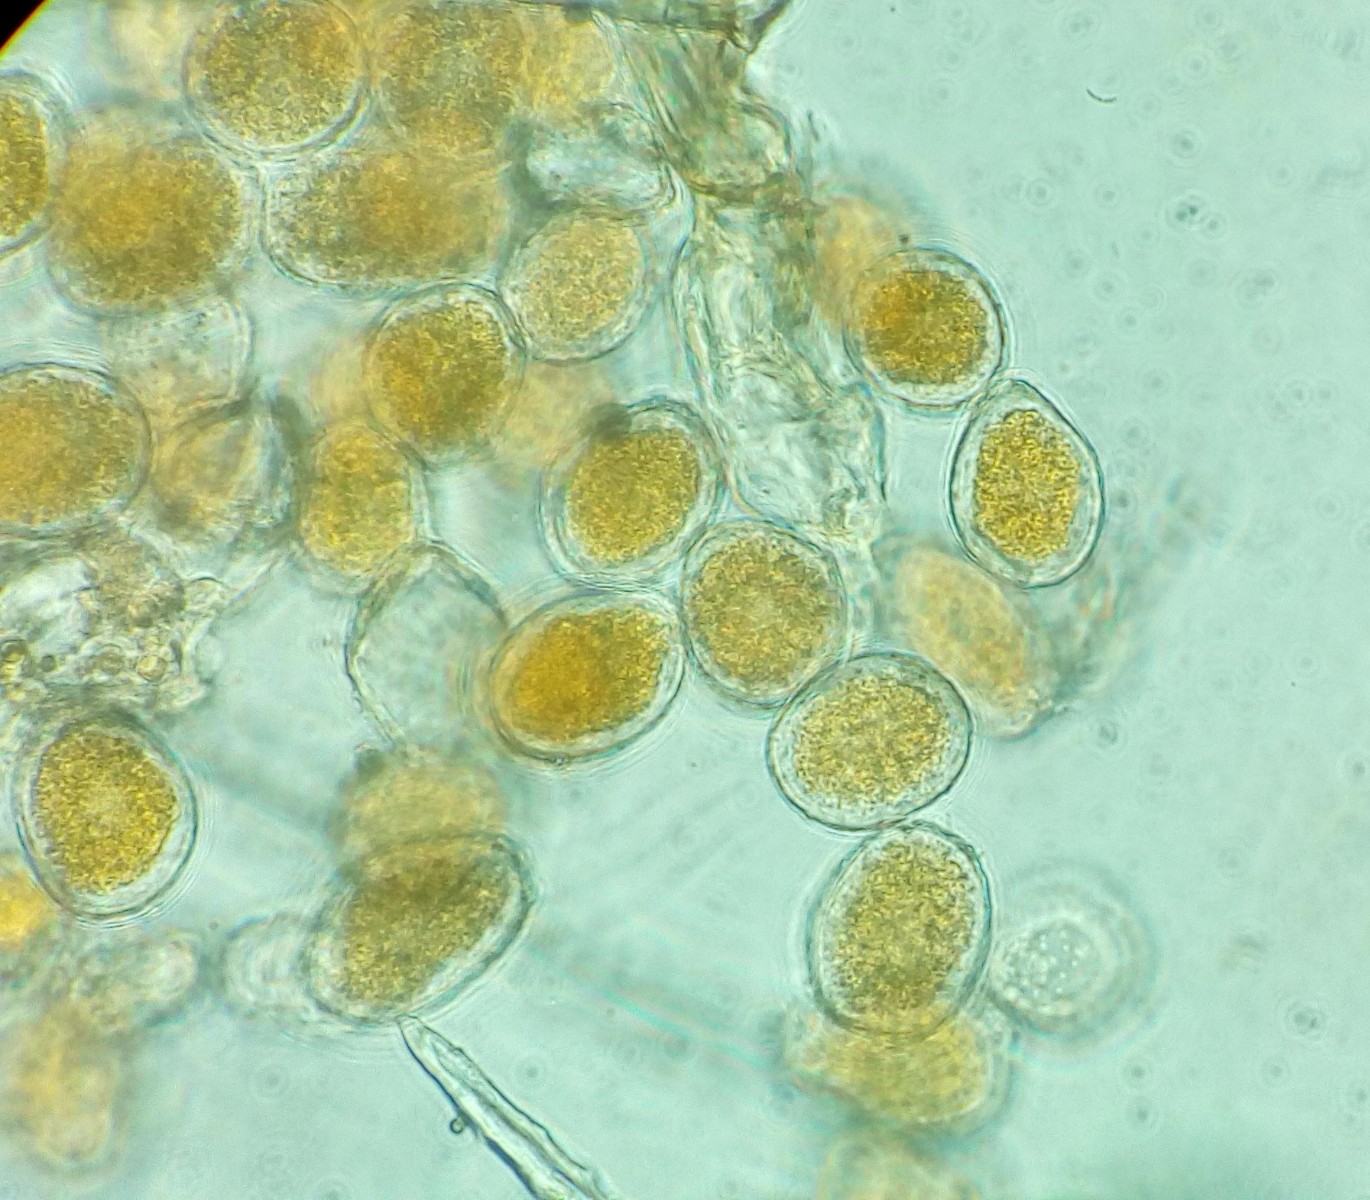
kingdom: Fungi
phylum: Basidiomycota
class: Pucciniomycetes
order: Pucciniales
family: Cronartiaceae
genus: Quasipucciniastrum
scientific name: Quasipucciniastrum ochraceum
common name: agermåne-nålerust
